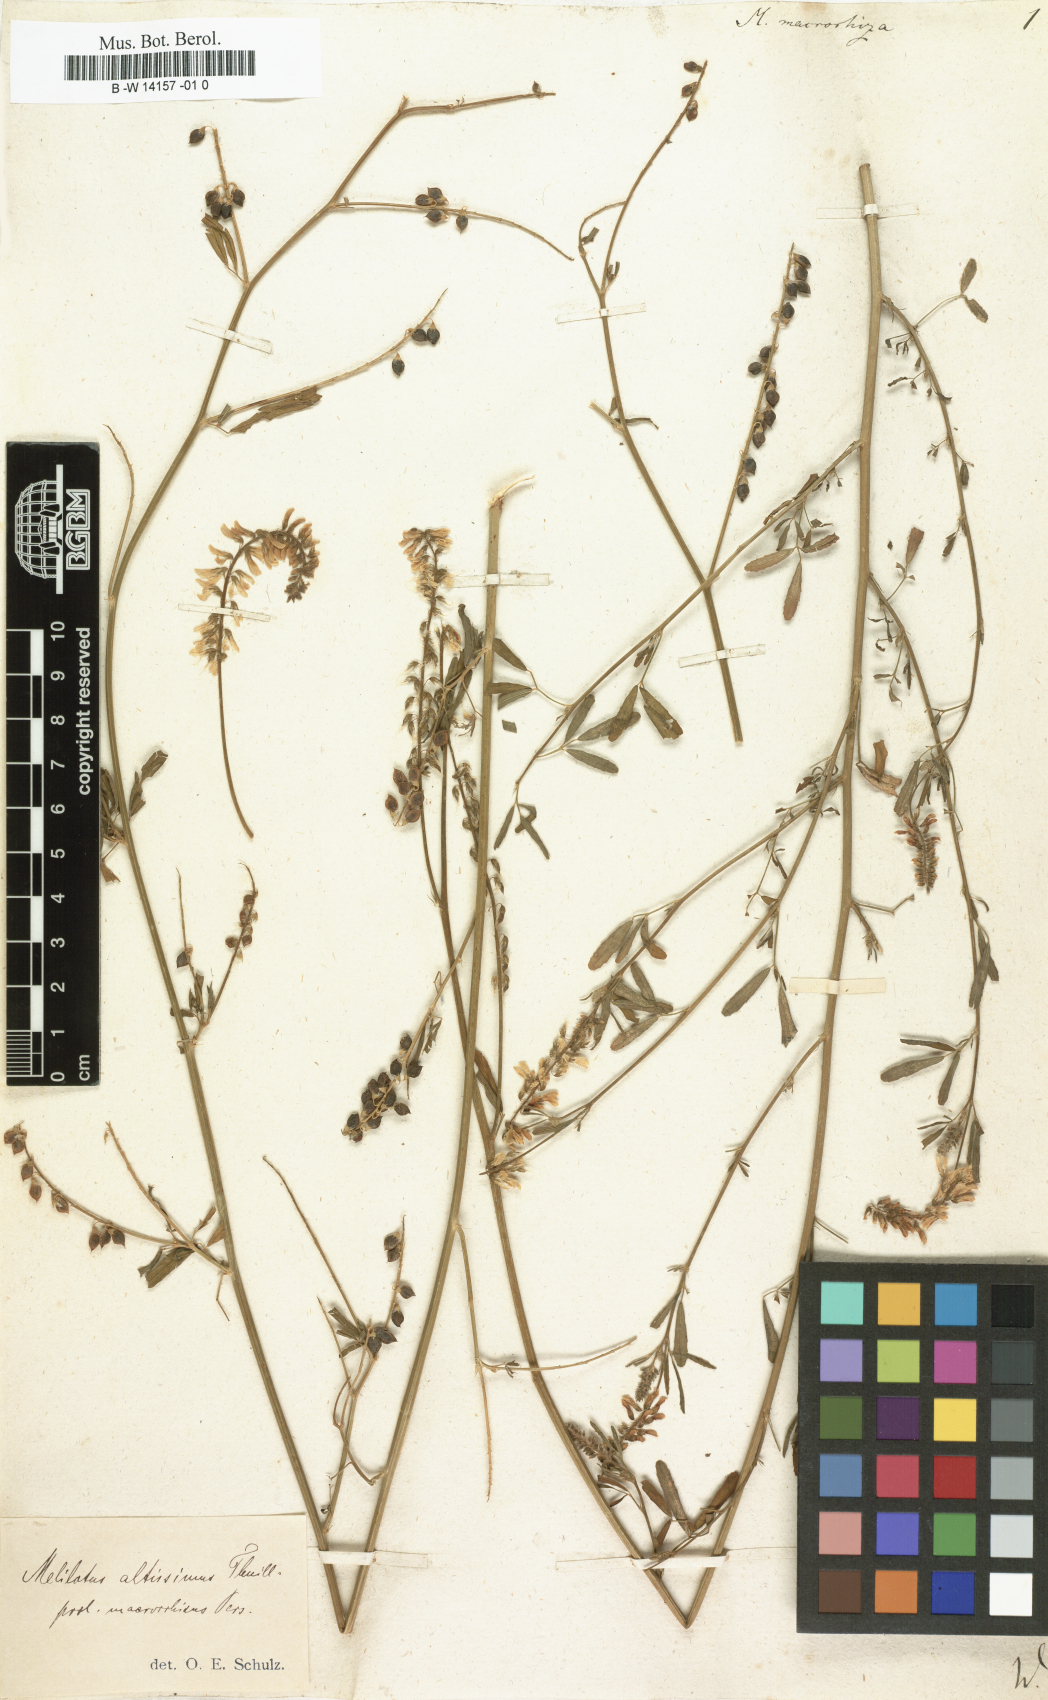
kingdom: Plantae
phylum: Tracheophyta
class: Magnoliopsida
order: Fabales
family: Fabaceae
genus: Melilotus
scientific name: Melilotus
